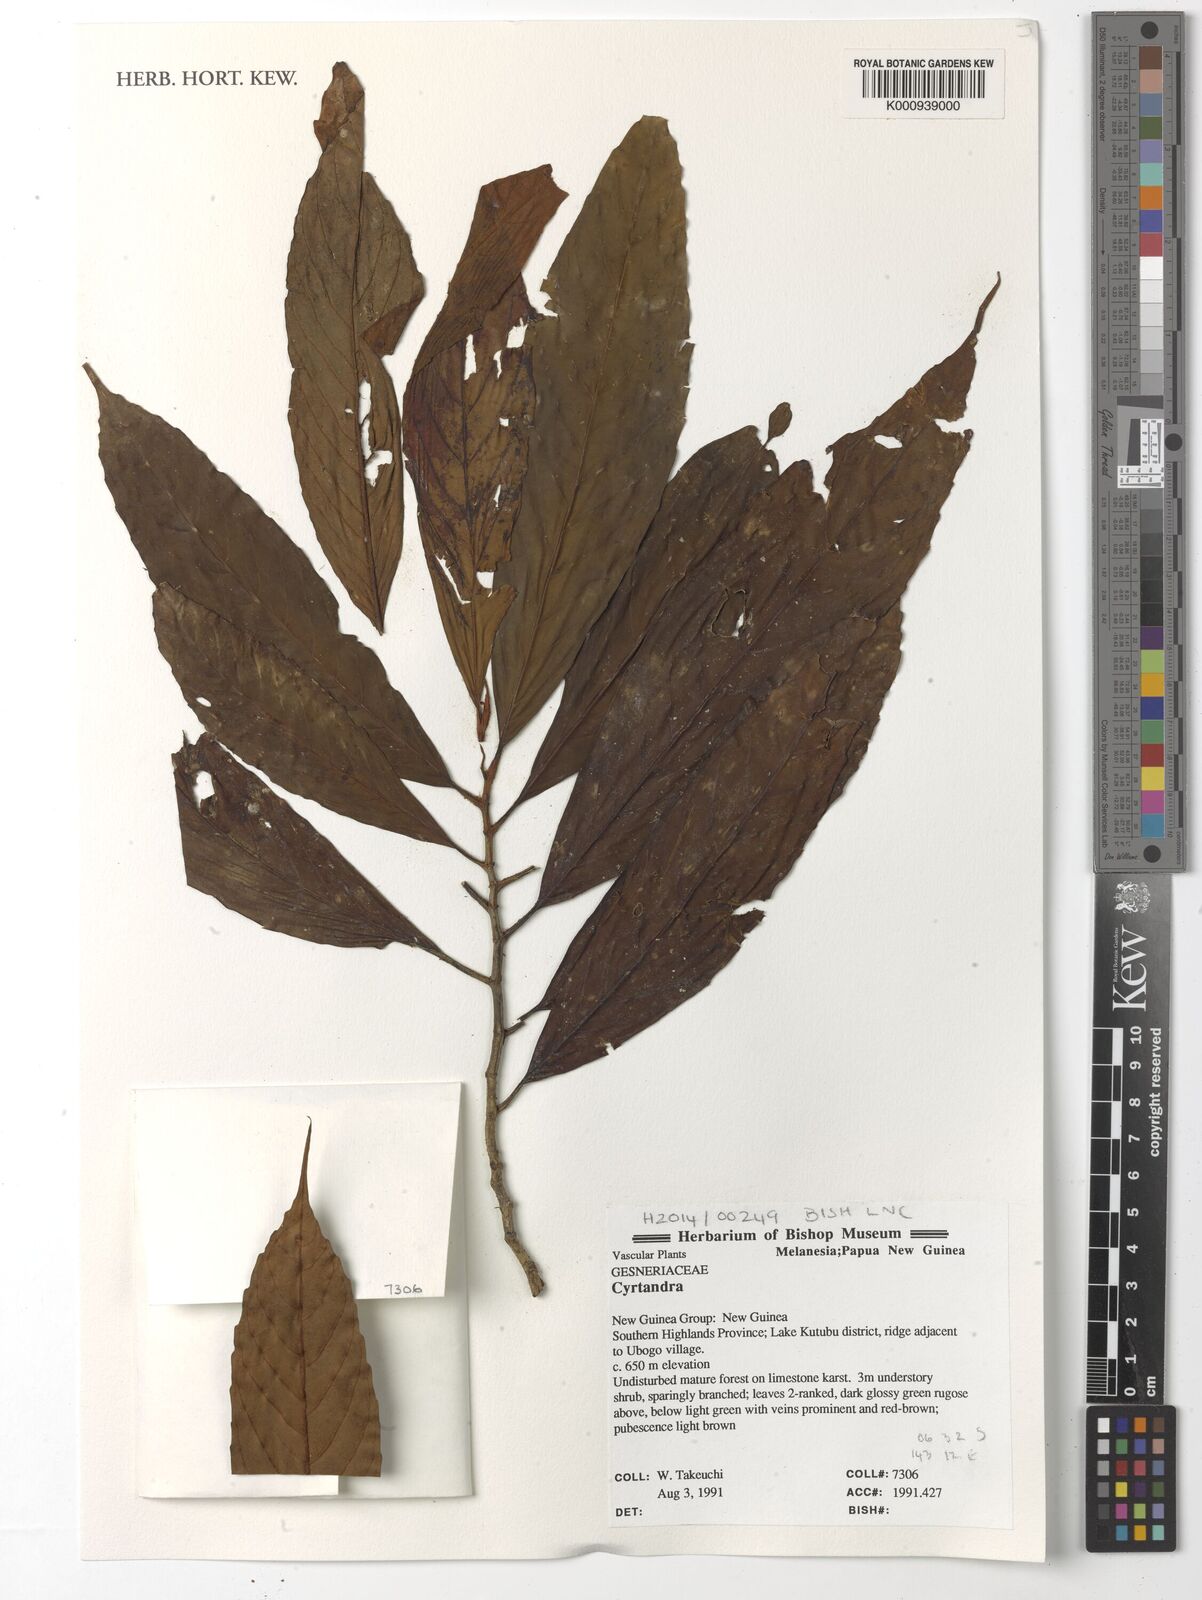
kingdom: Plantae
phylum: Tracheophyta
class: Magnoliopsida
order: Lamiales
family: Gesneriaceae
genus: Cyrtandra
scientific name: Cyrtandra
